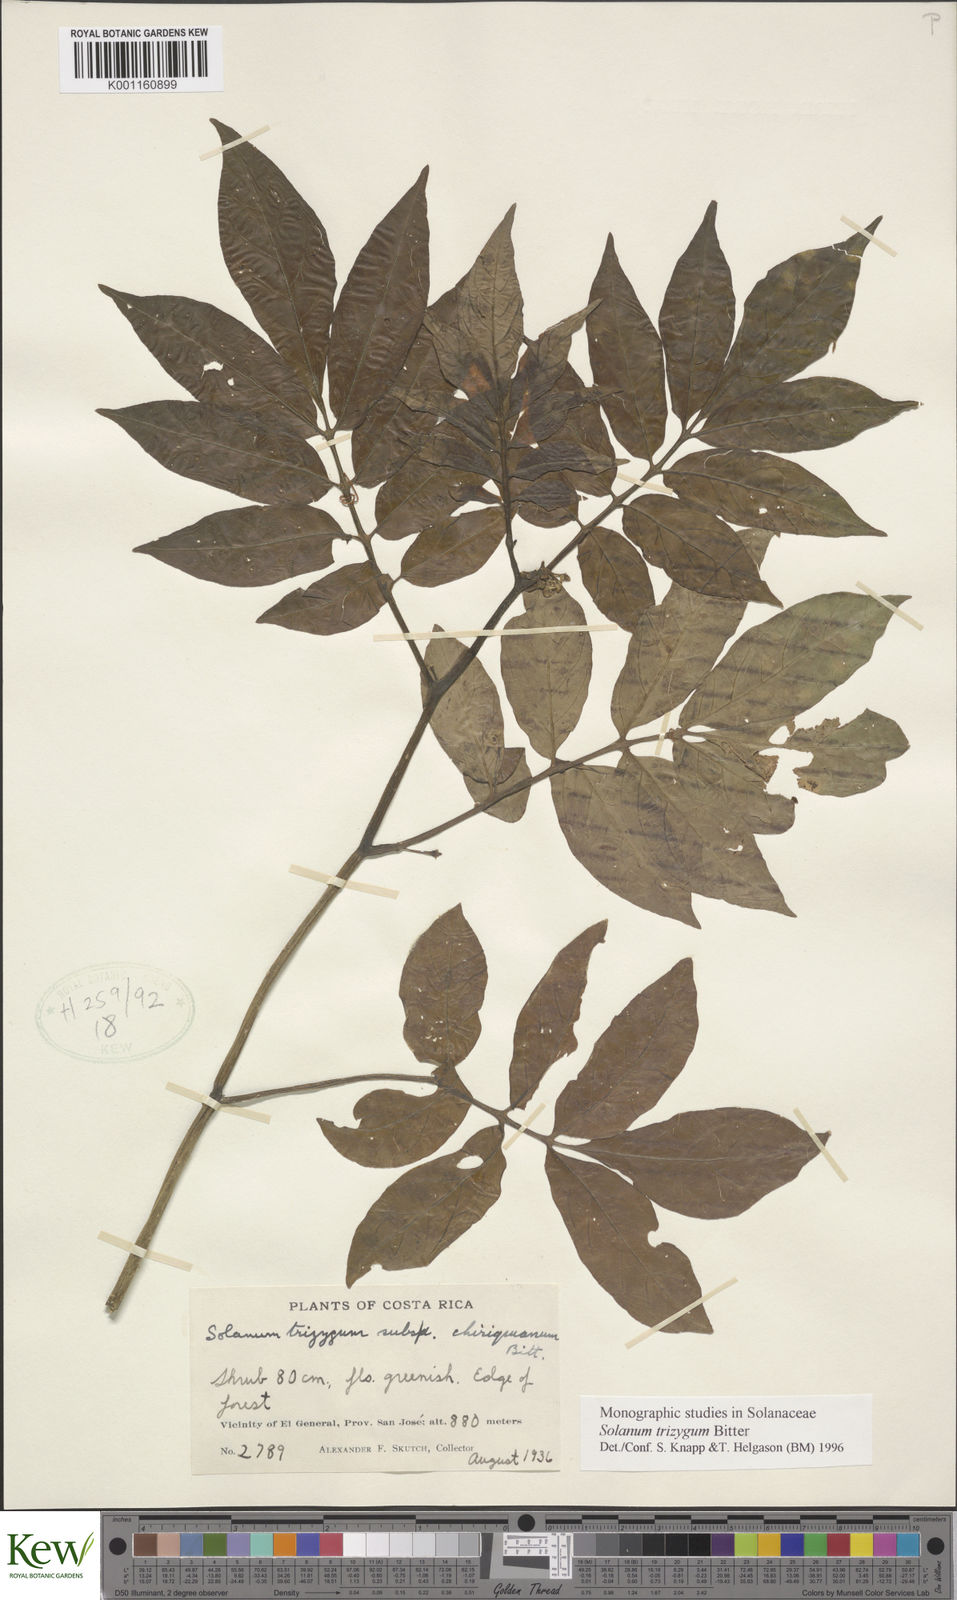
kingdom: Plantae
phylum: Tracheophyta
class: Magnoliopsida
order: Solanales
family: Solanaceae
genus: Solanum
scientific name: Solanum trizygum
